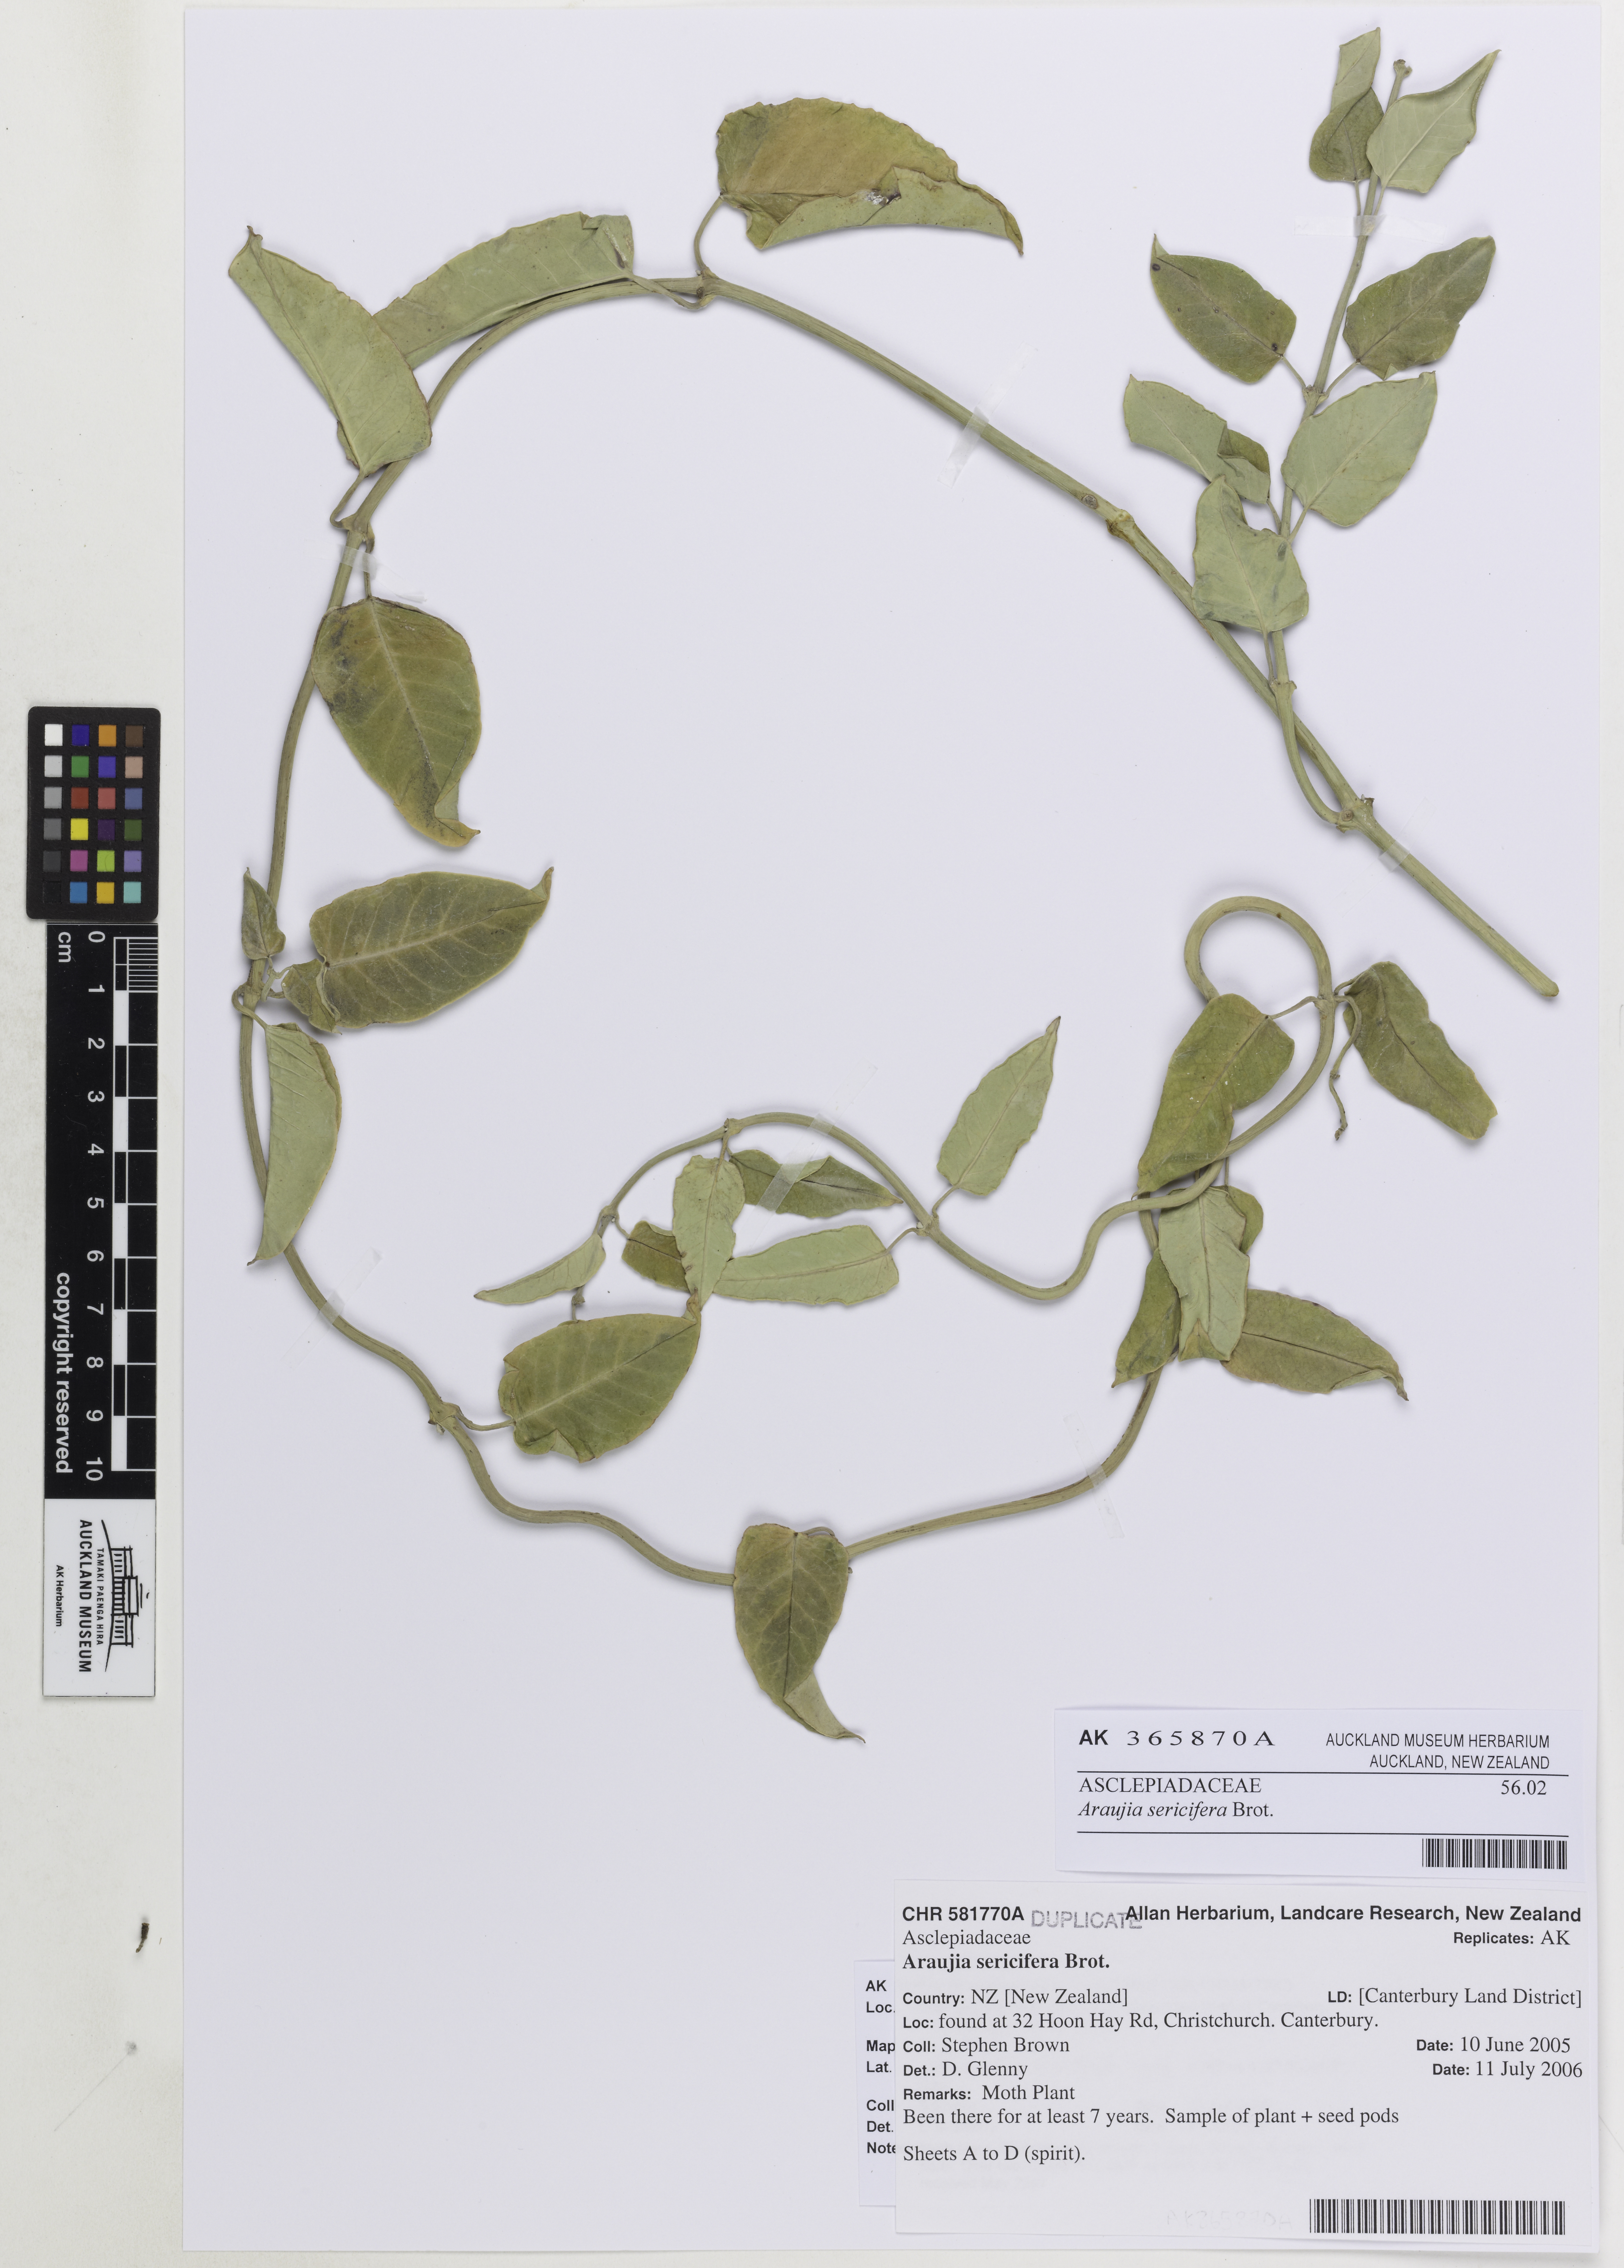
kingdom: Plantae
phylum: Tracheophyta
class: Magnoliopsida
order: Gentianales
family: Apocynaceae
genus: Araujia
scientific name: Araujia sericifera
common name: White bladderflower
